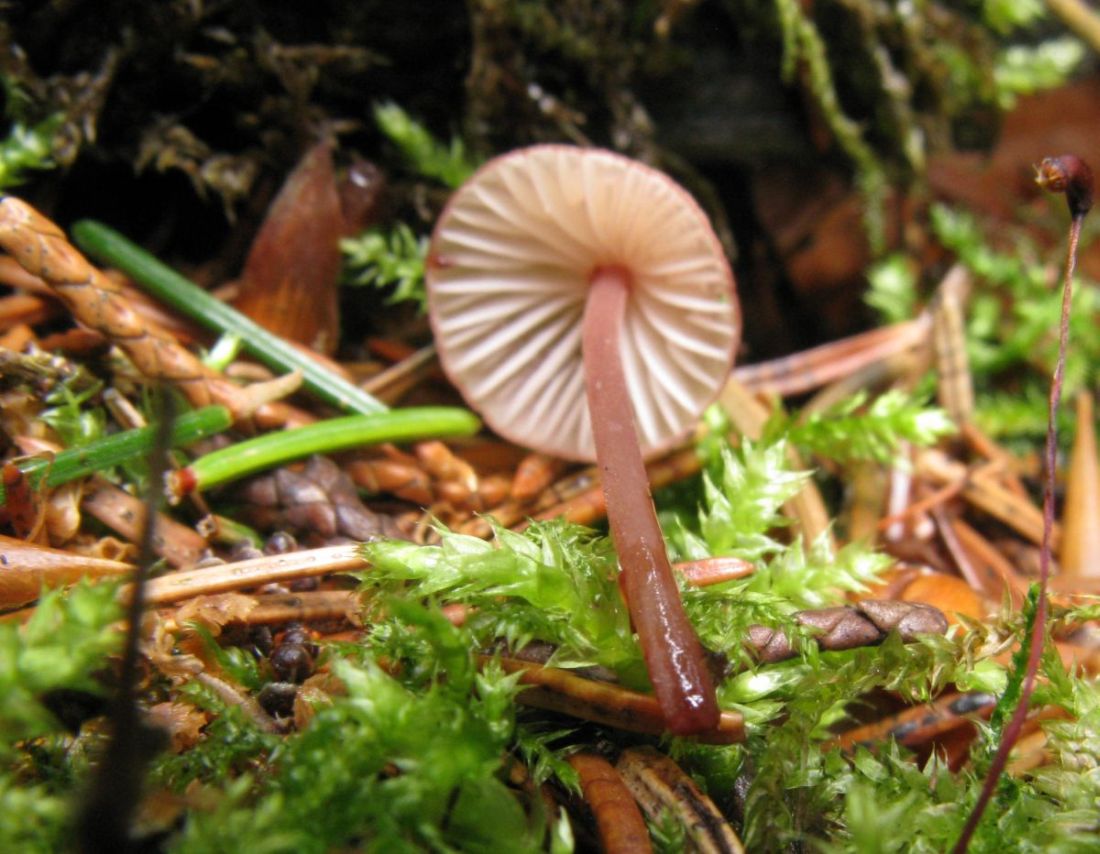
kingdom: Fungi
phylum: Basidiomycota
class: Agaricomycetes
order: Agaricales
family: Mycenaceae
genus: Mycena
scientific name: Mycena sanguinolenta
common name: rødmælket huesvamp
